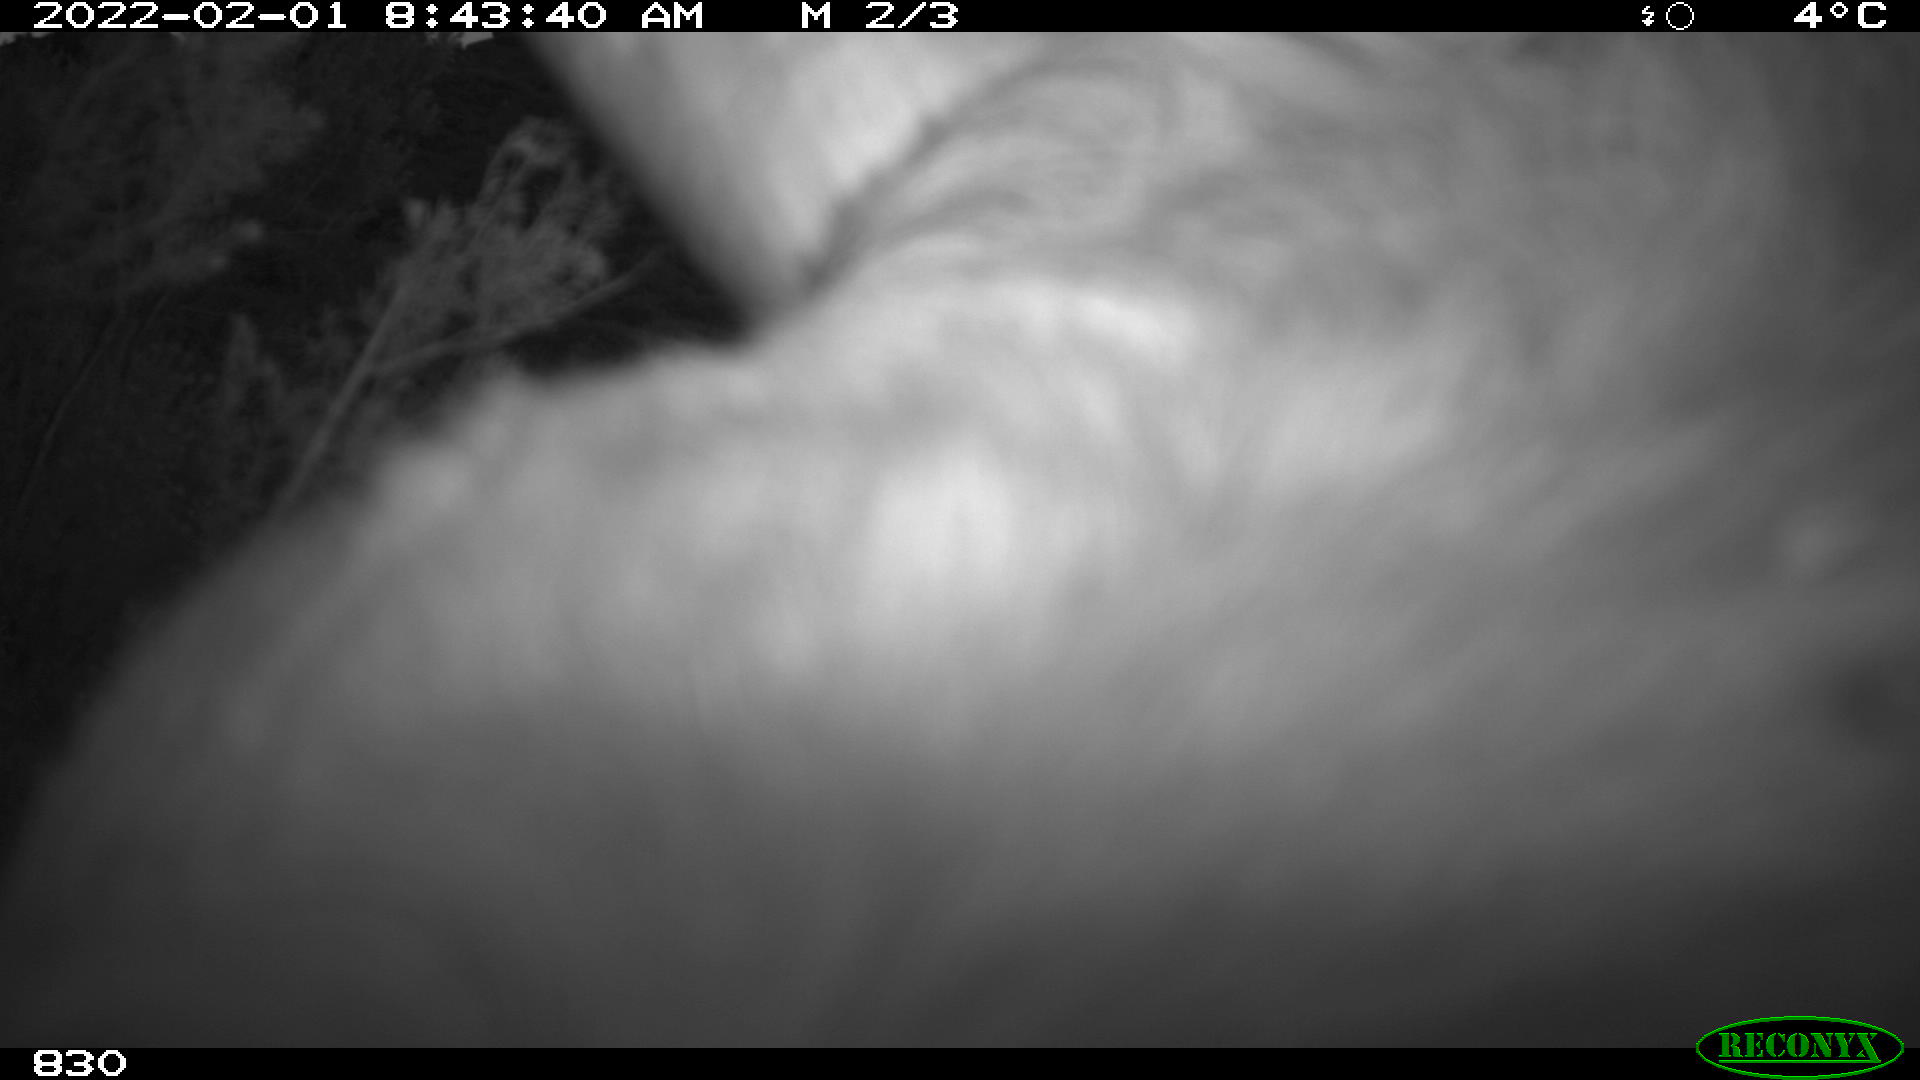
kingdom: Animalia
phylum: Chordata
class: Mammalia
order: Artiodactyla
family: Bovidae
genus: Bos
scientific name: Bos taurus
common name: Domesticated cattle
